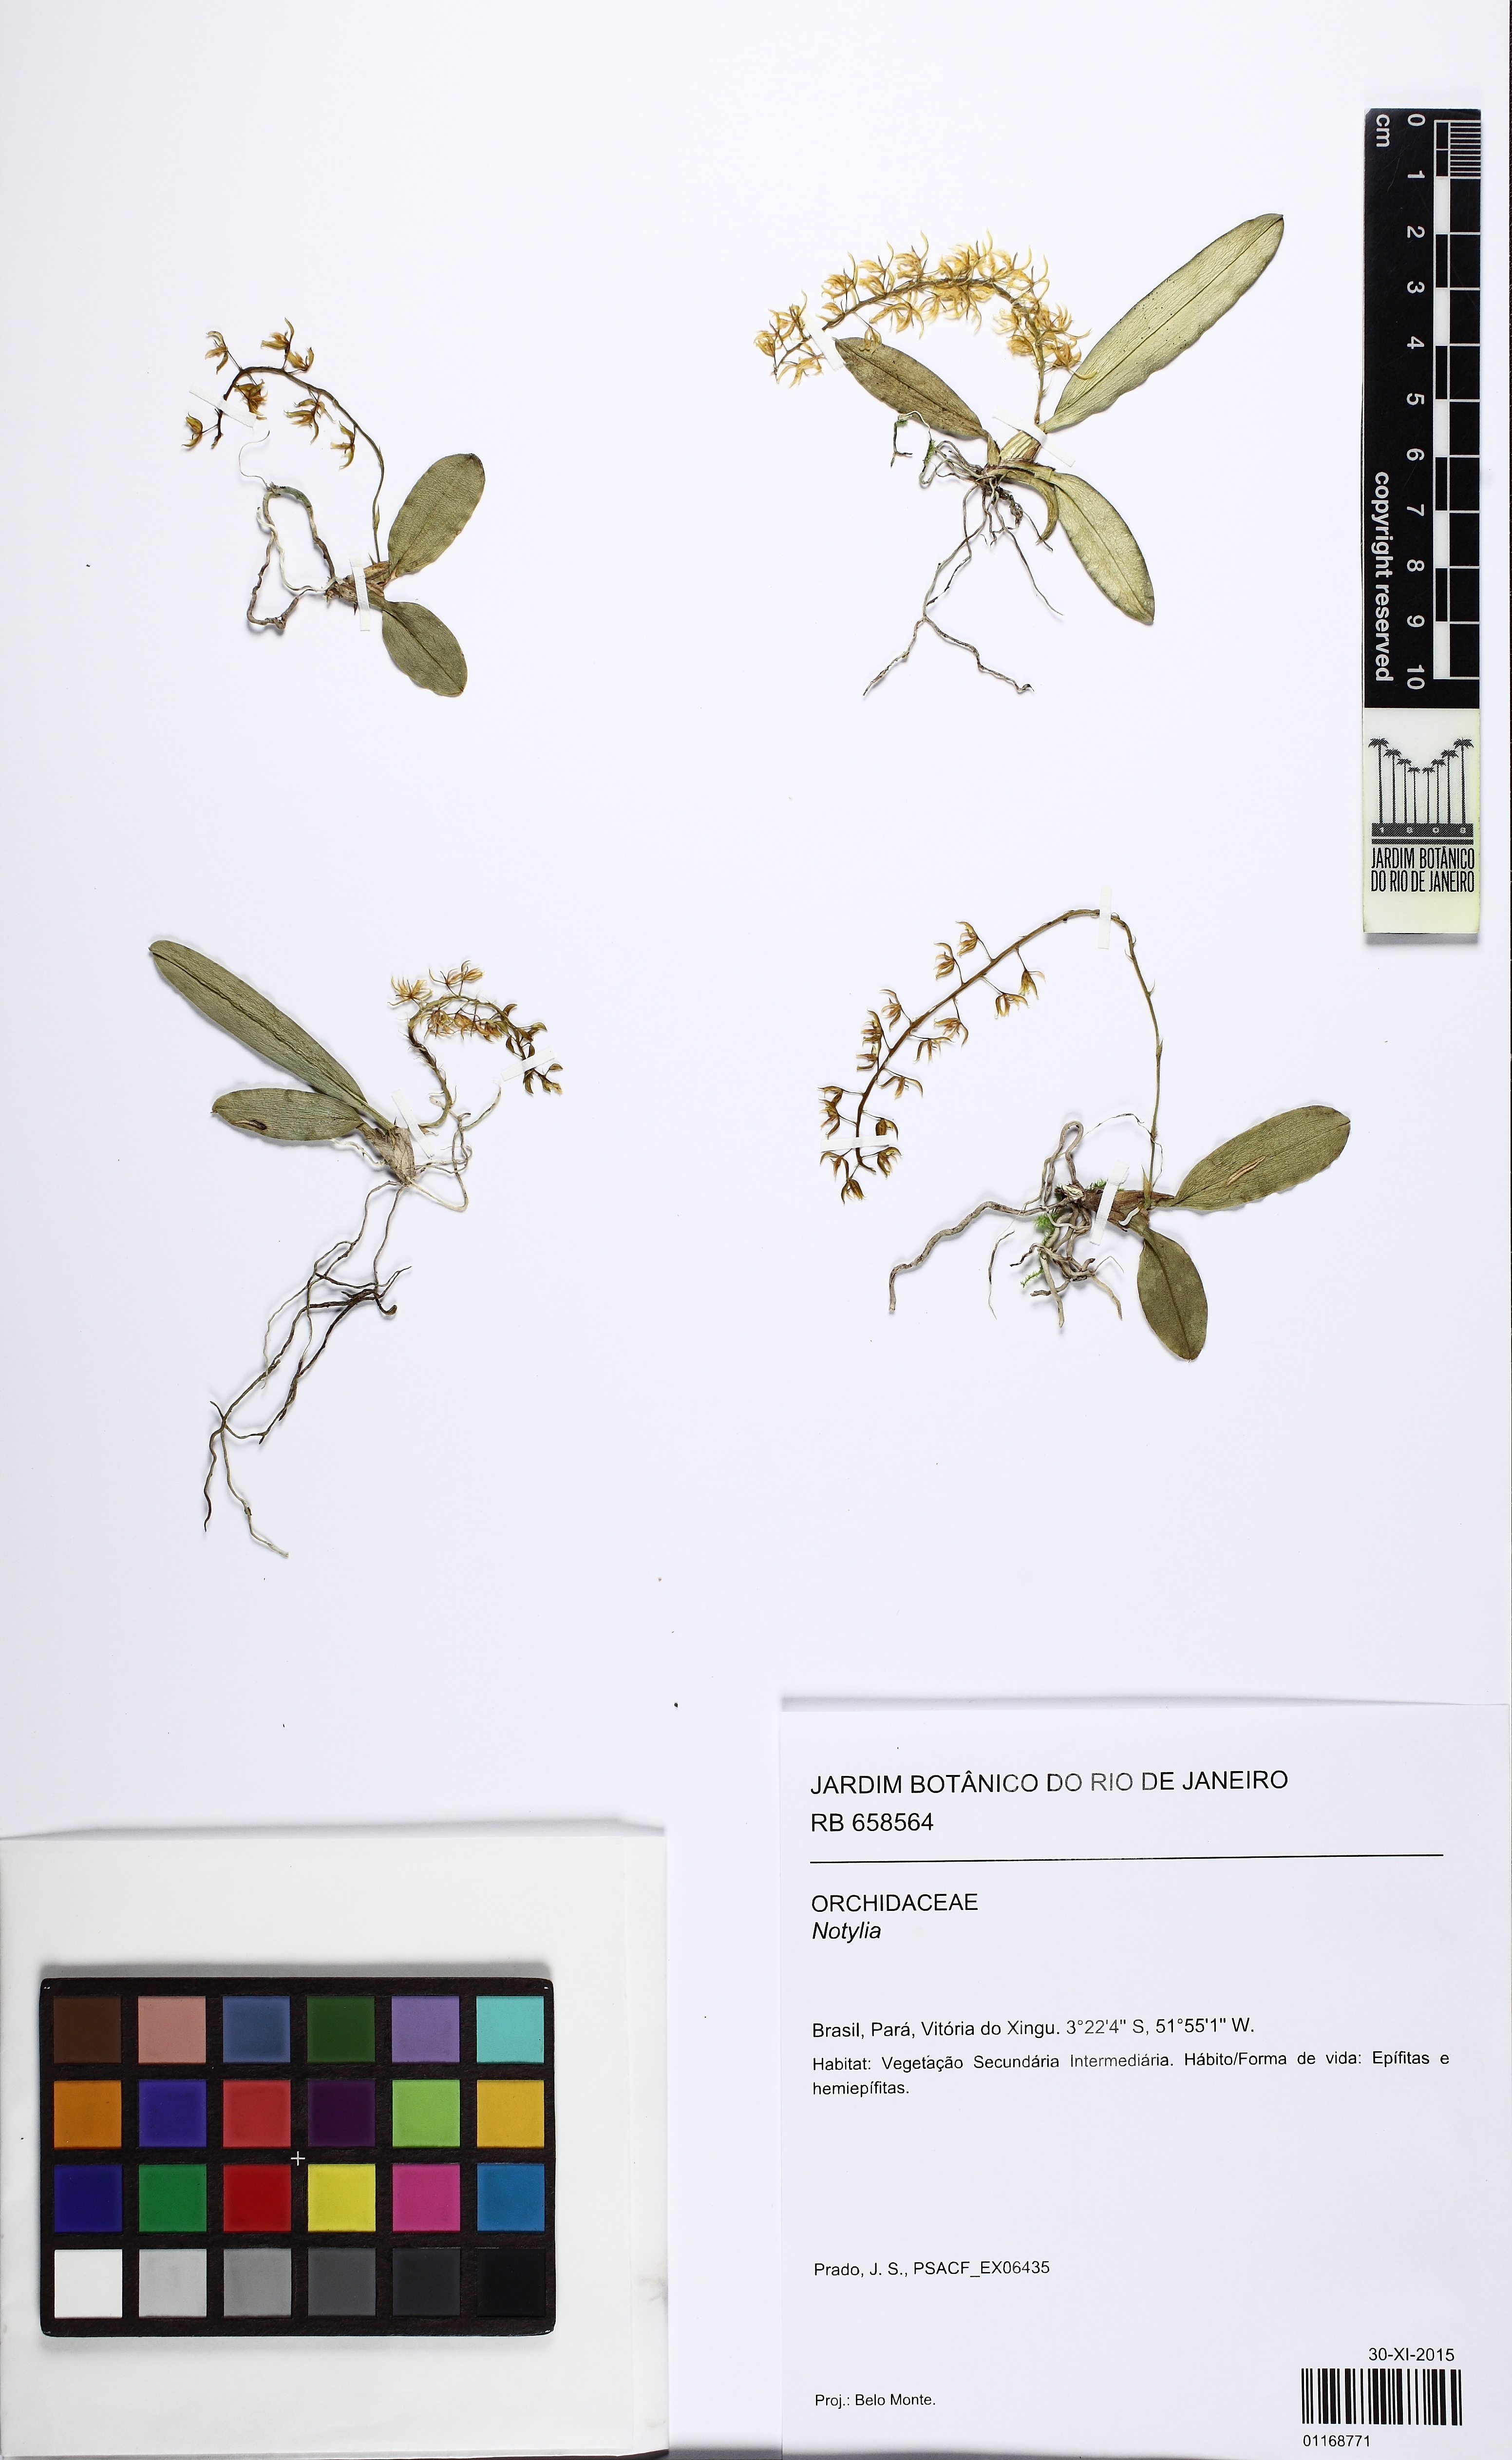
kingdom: Plantae
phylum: Tracheophyta
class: Liliopsida
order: Asparagales
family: Orchidaceae
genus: Notylia
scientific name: Notylia
